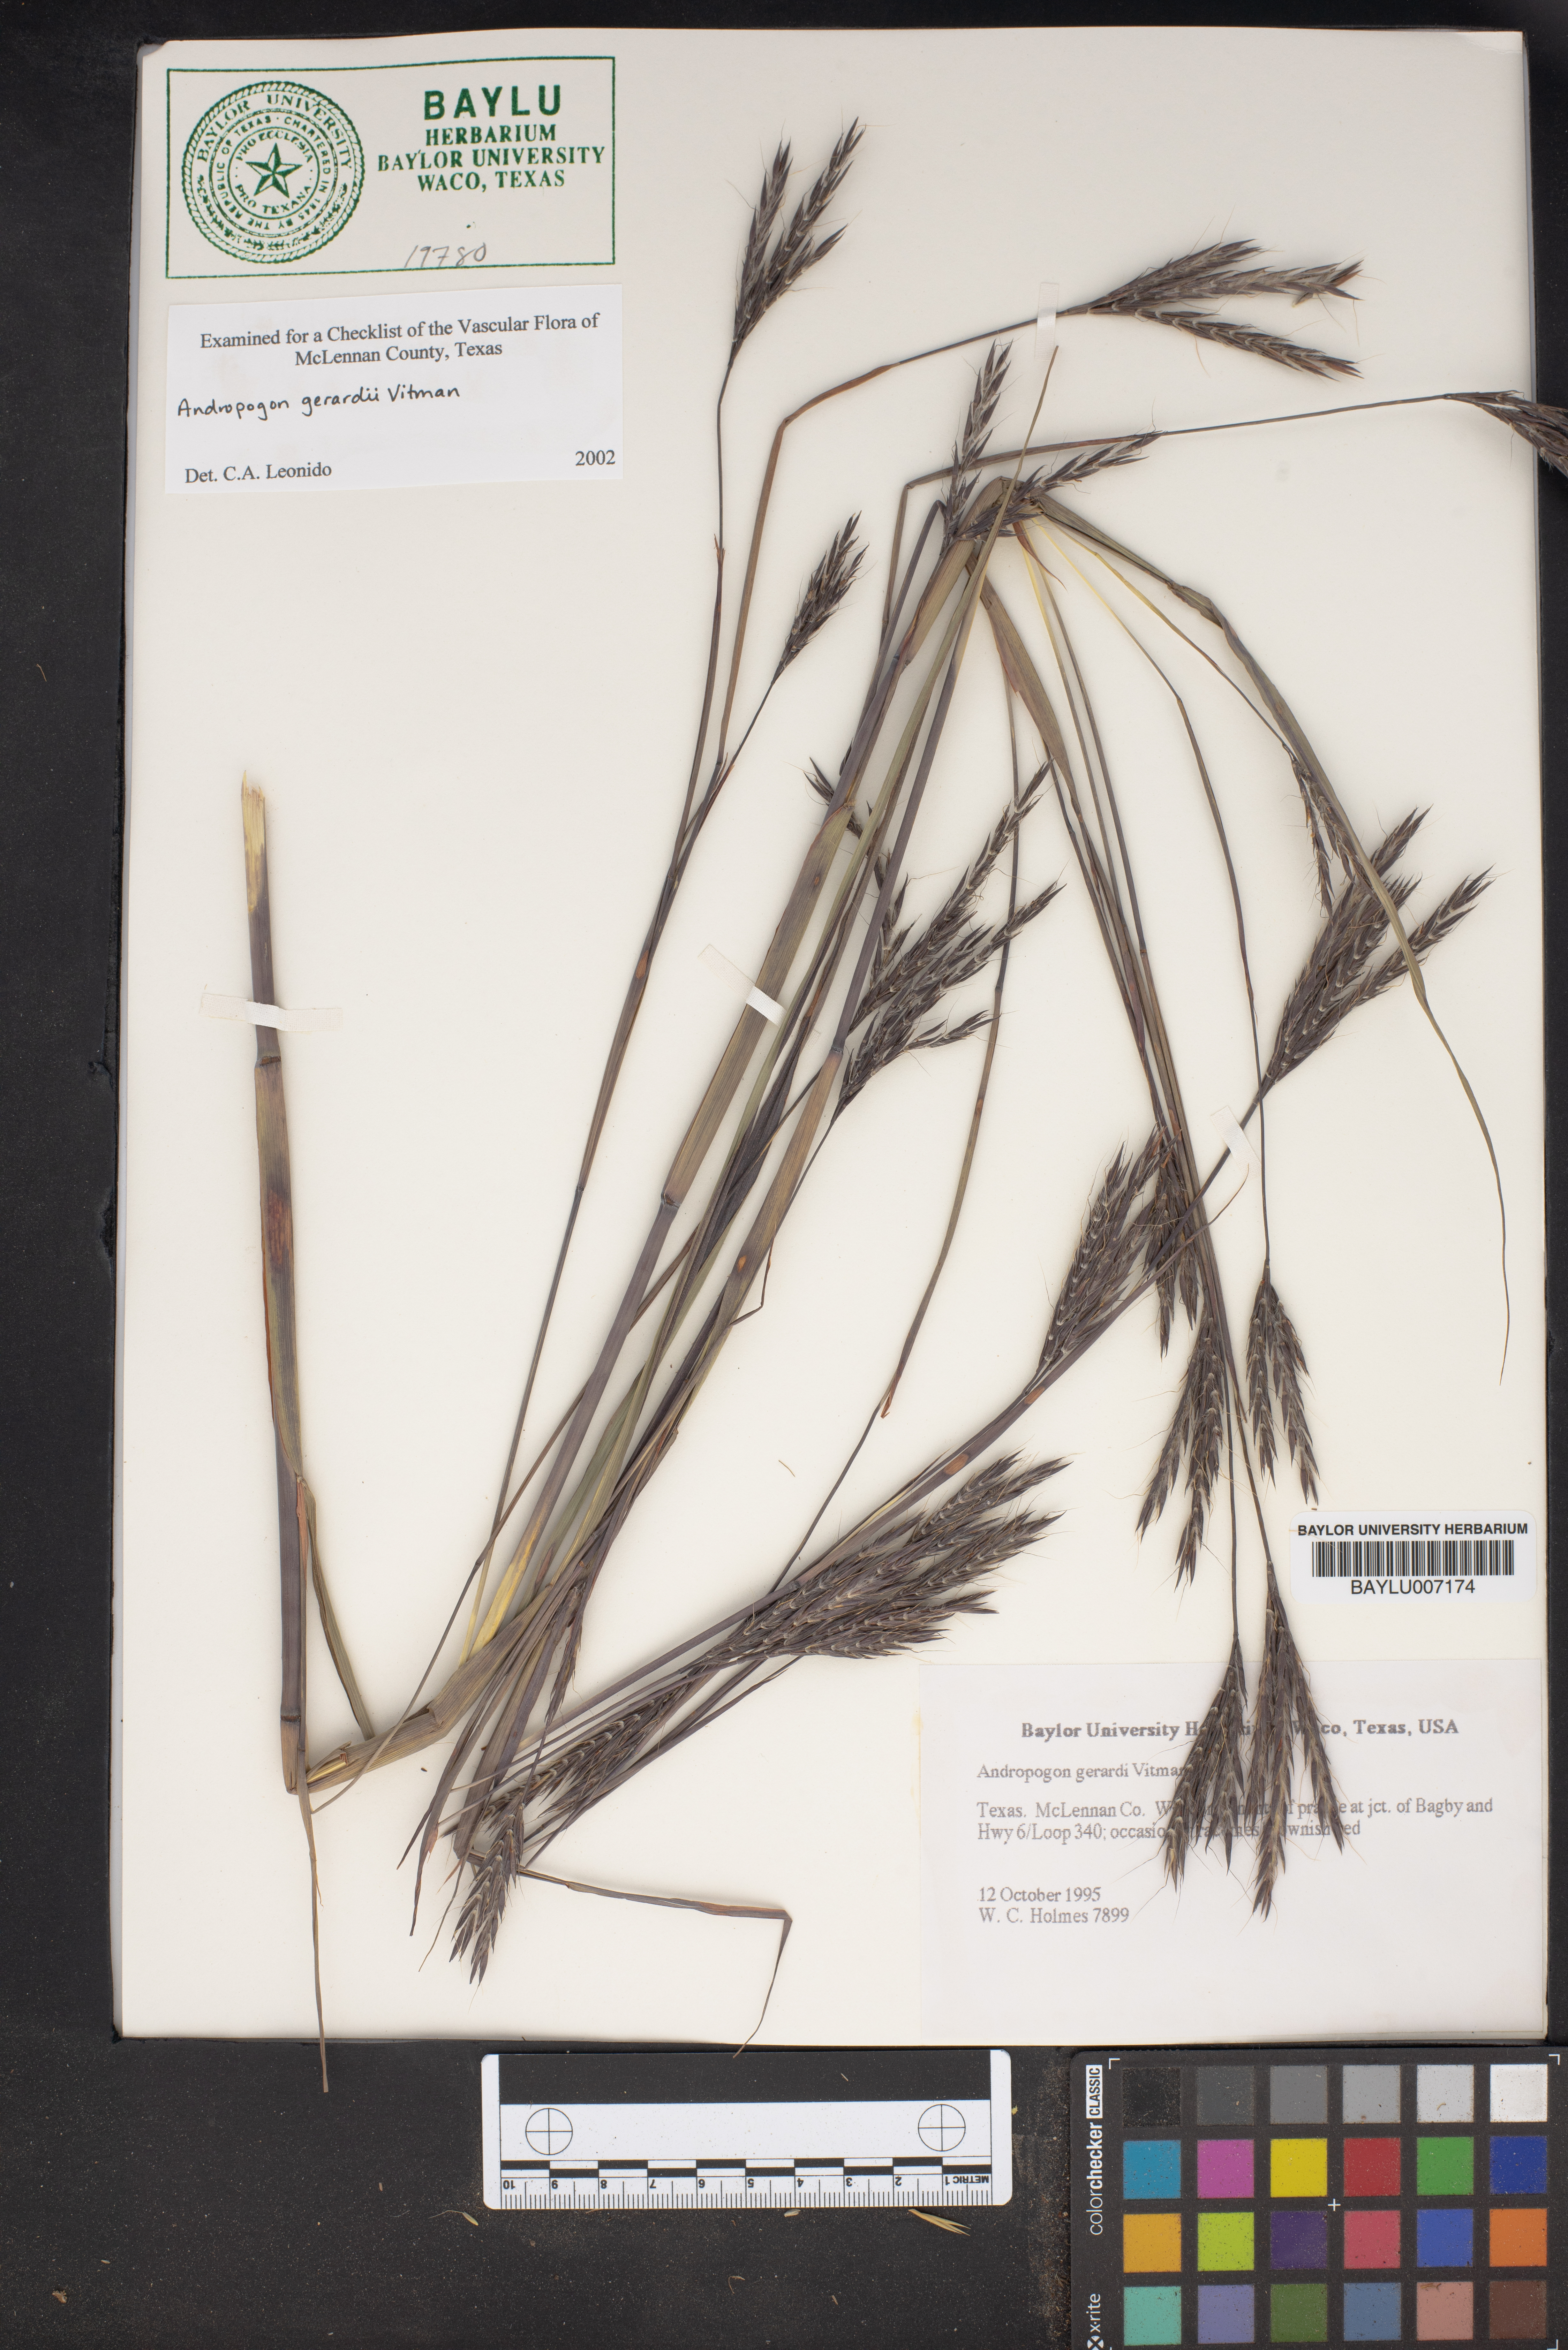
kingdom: Plantae
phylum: Tracheophyta
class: Liliopsida
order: Poales
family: Poaceae
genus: Andropogon
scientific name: Andropogon gerardi
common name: Big bluestem
